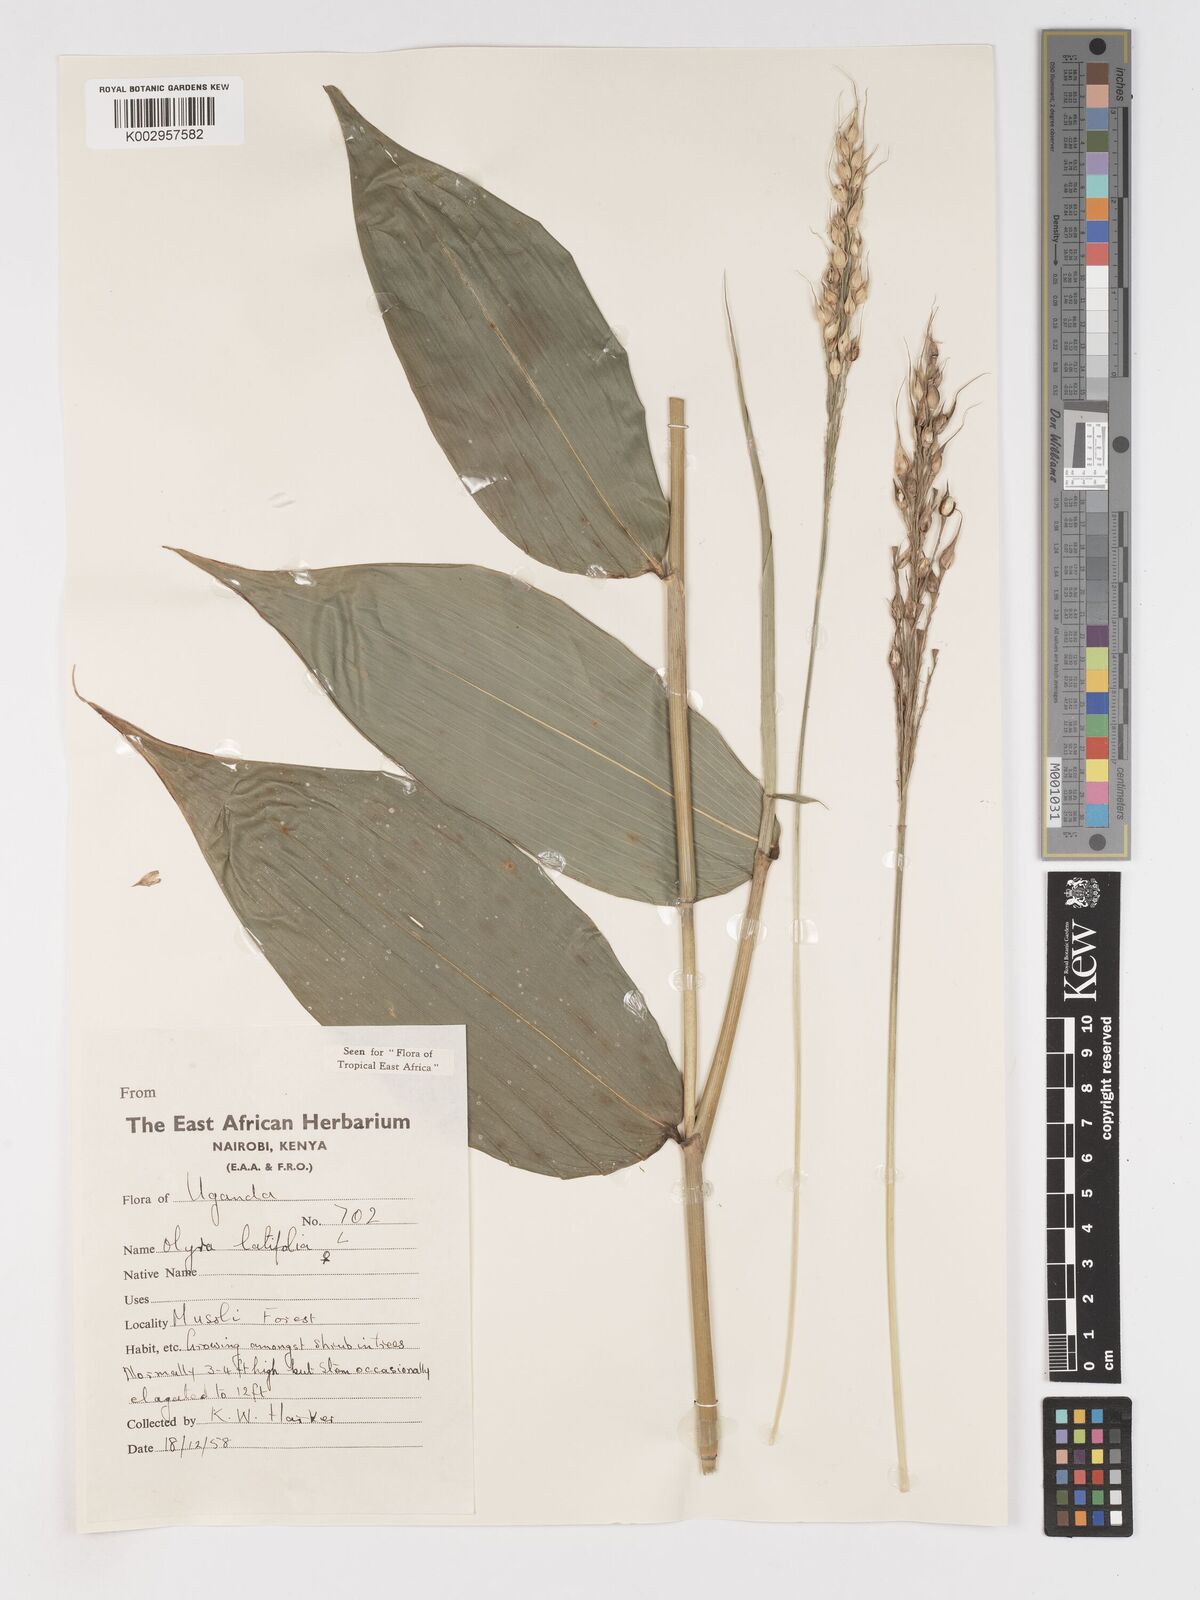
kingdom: Plantae
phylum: Tracheophyta
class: Liliopsida
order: Poales
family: Poaceae
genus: Olyra
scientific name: Olyra latifolia
